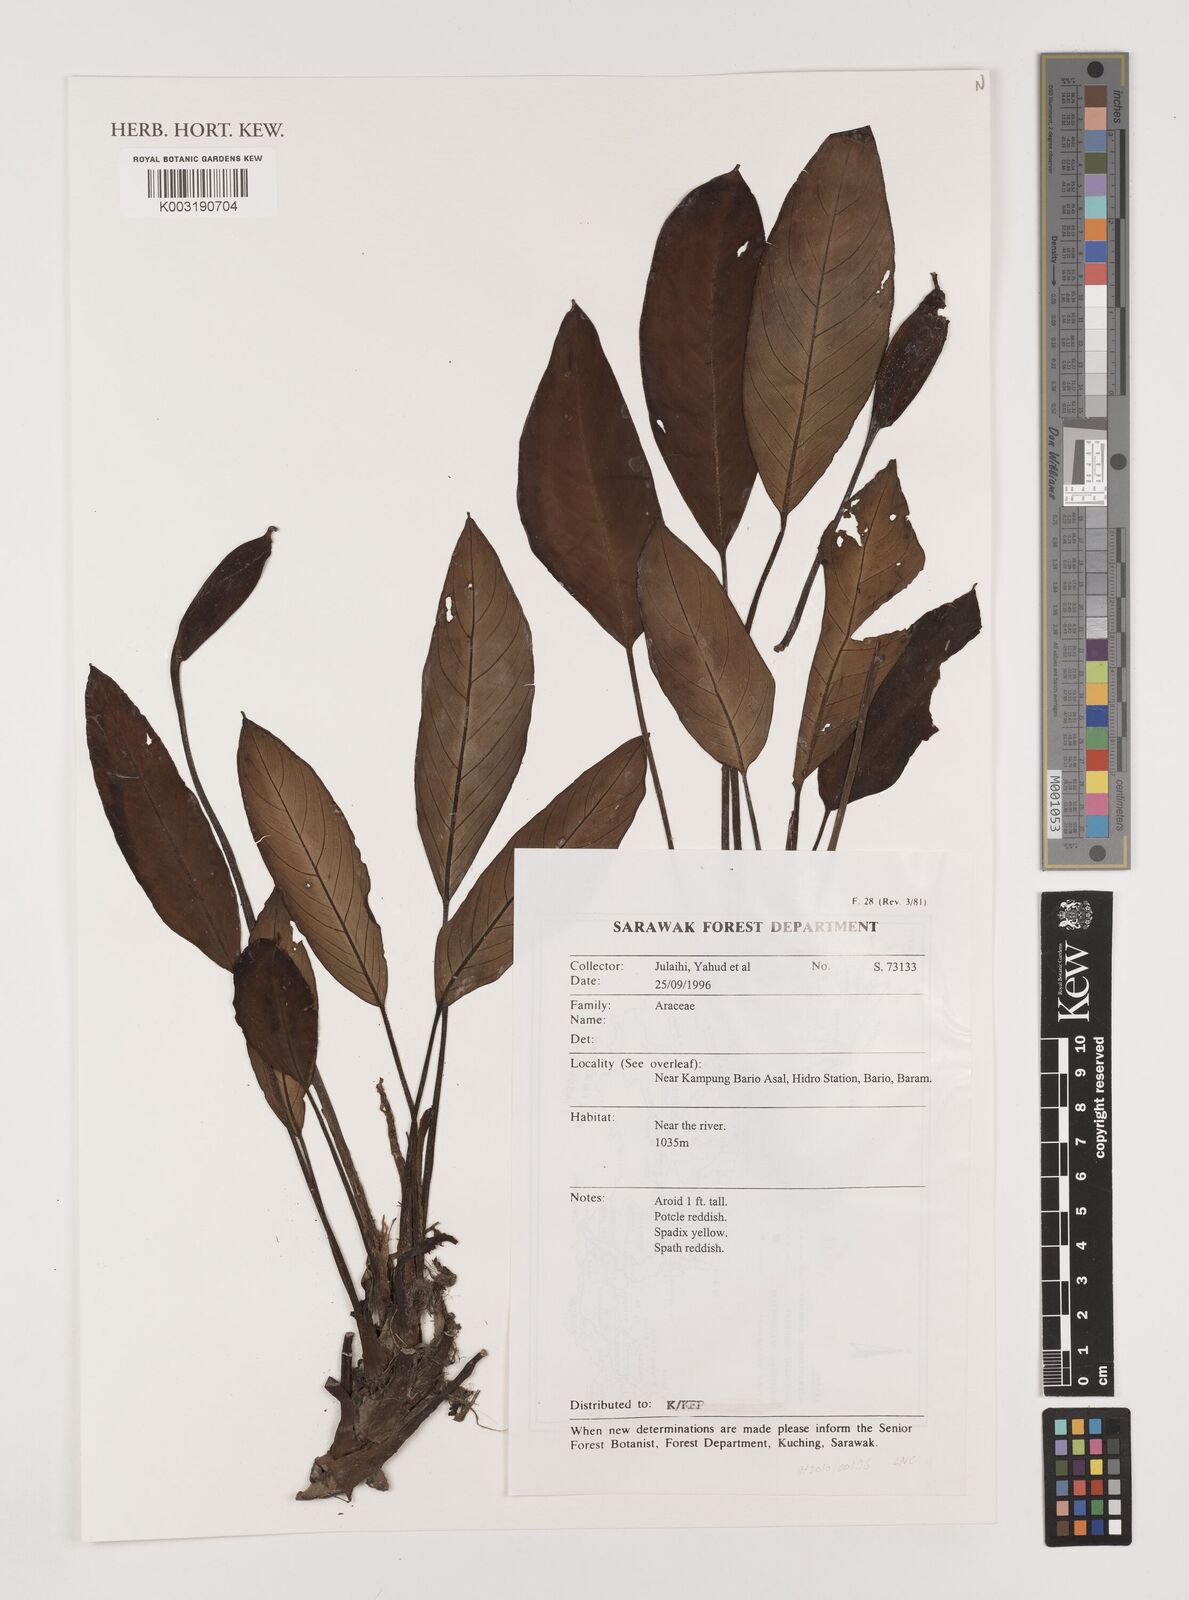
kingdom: Plantae
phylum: Tracheophyta
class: Liliopsida
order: Alismatales
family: Araceae
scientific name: Araceae
